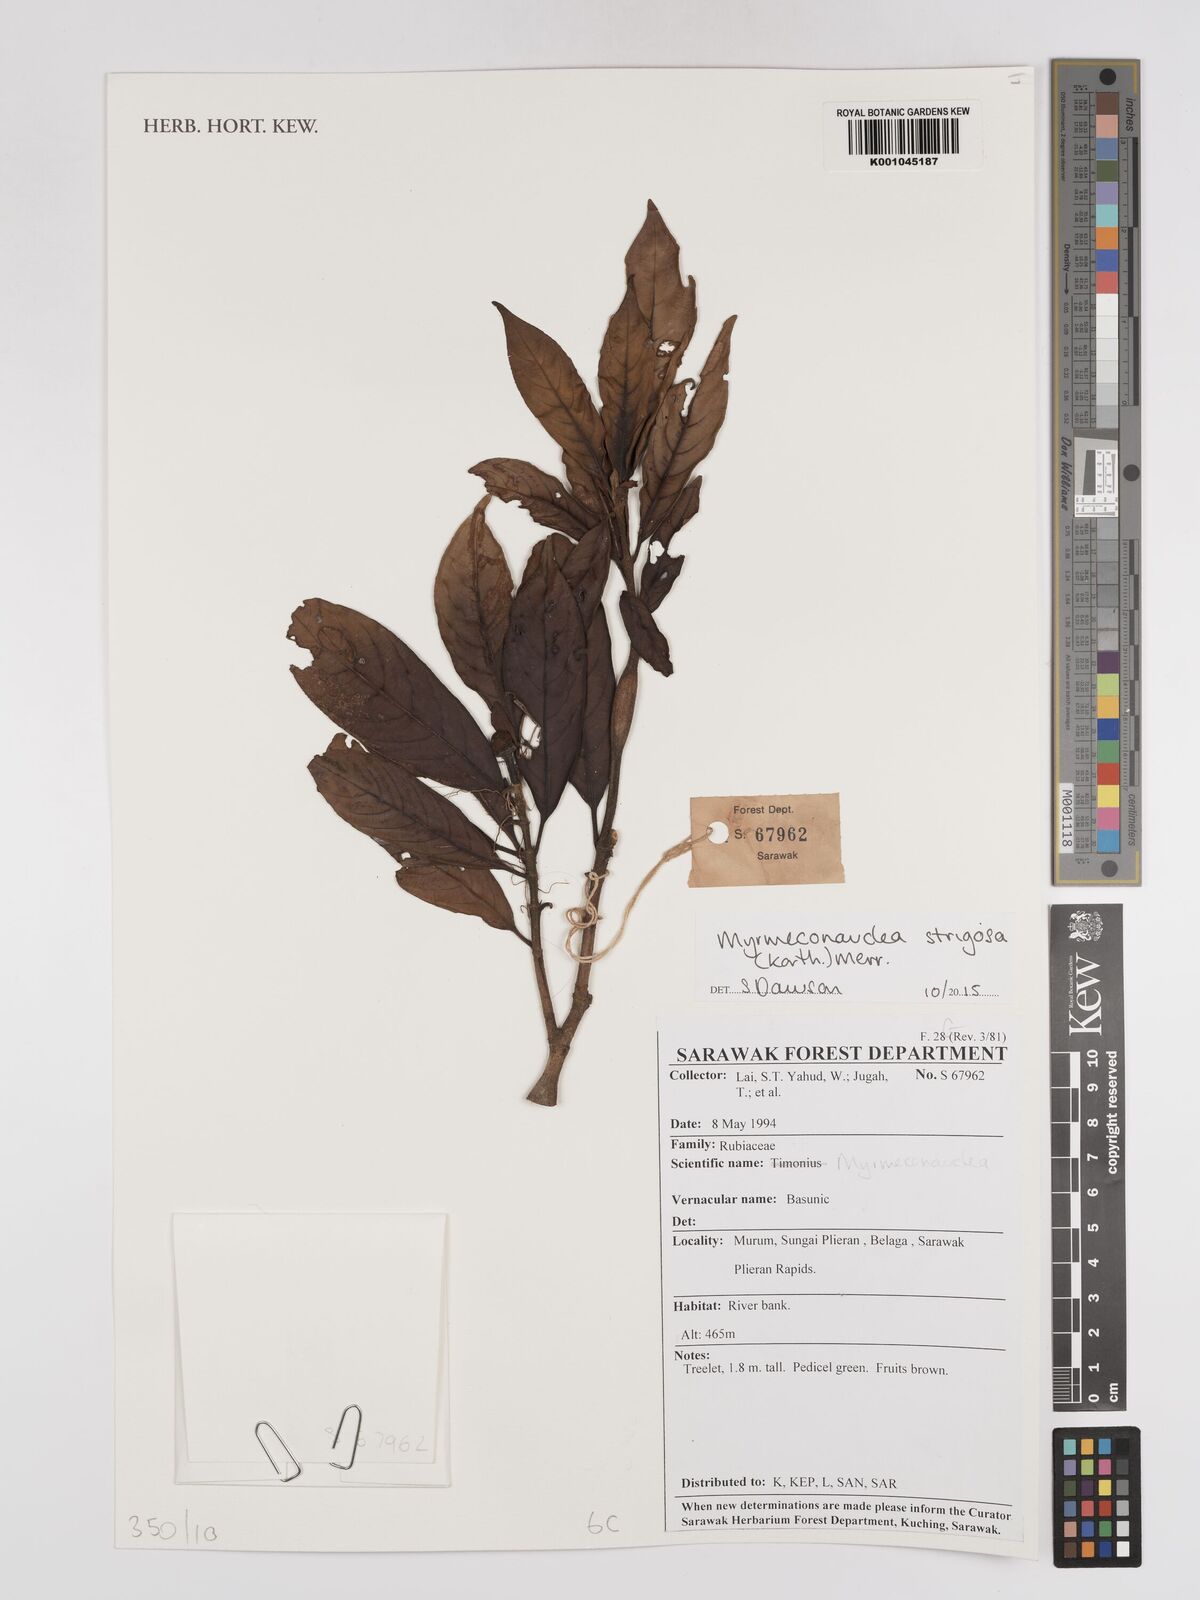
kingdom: Plantae
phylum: Tracheophyta
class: Magnoliopsida
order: Gentianales
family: Rubiaceae
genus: Myrmeconauclea
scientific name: Myrmeconauclea strigosa
